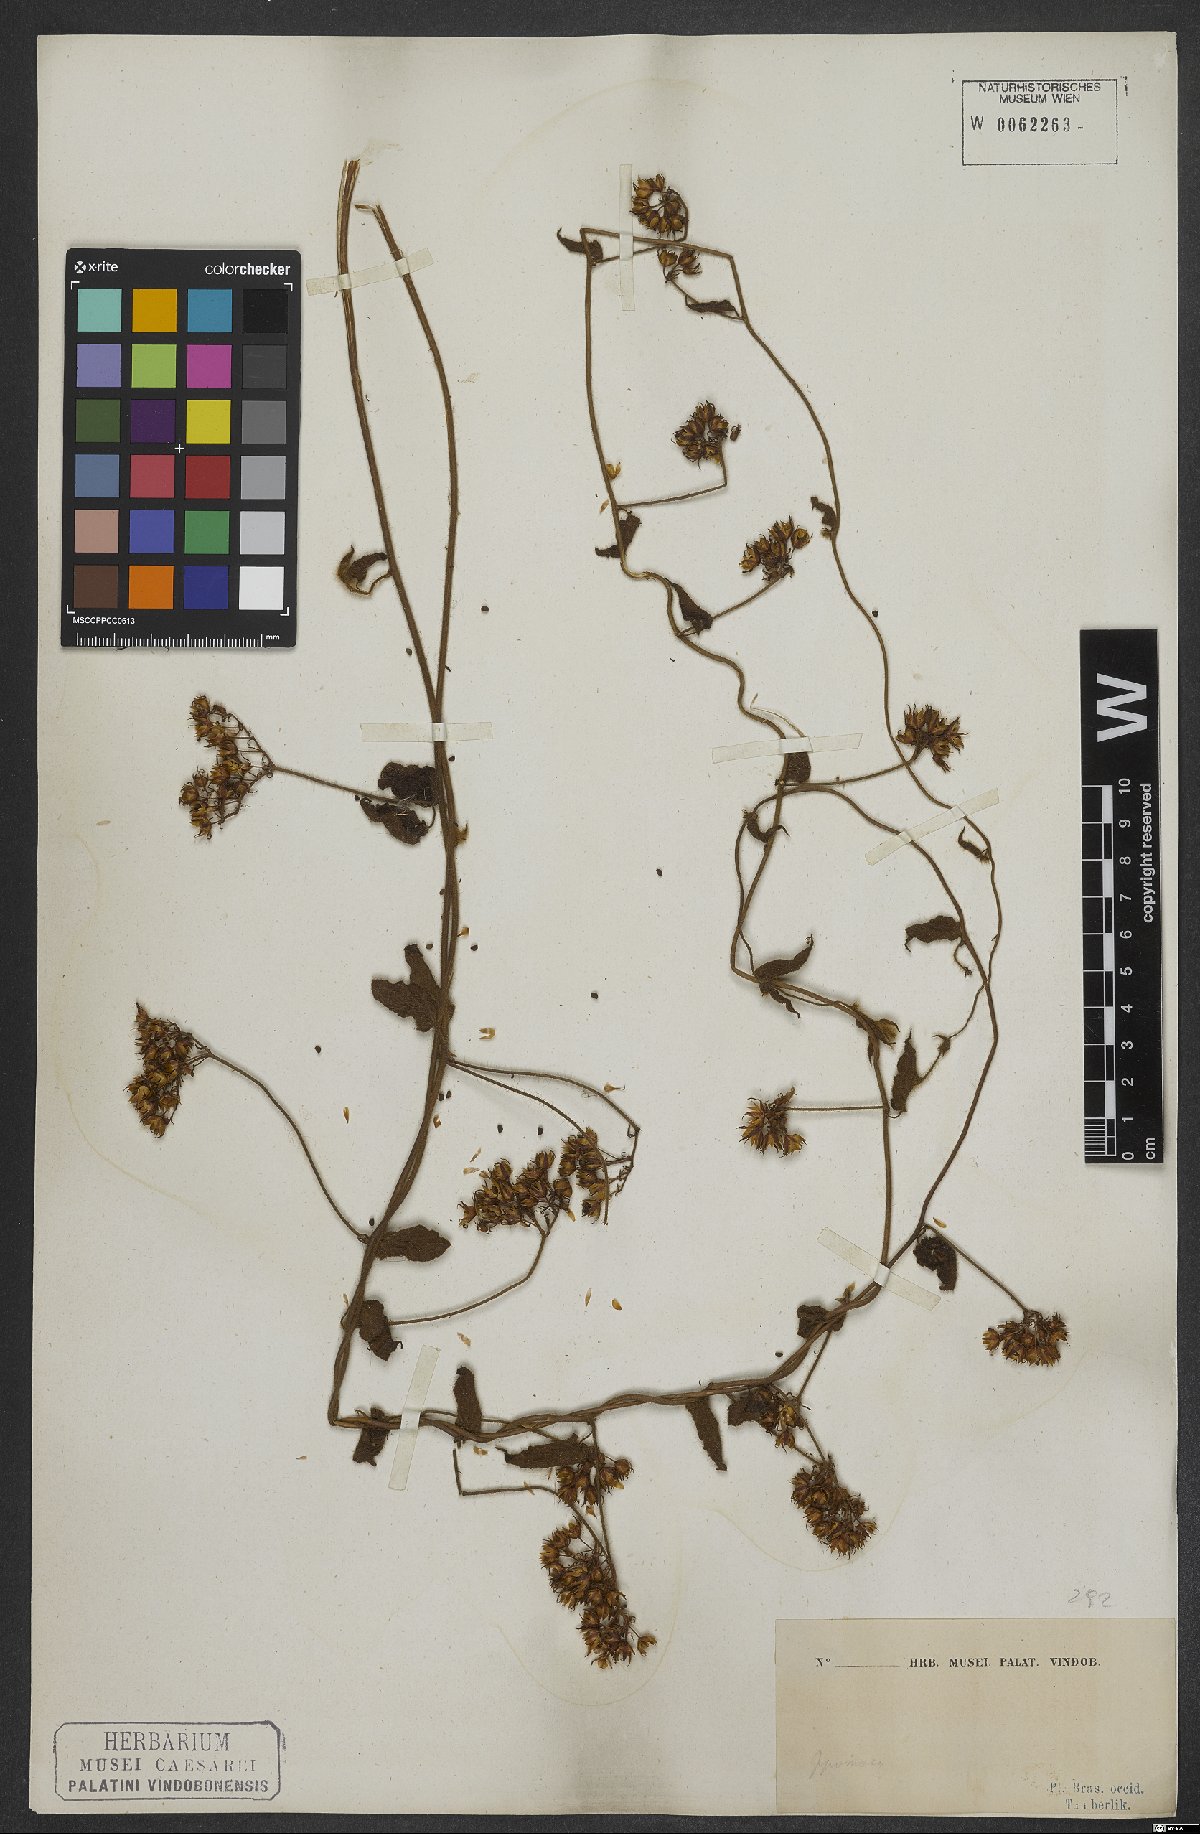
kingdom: Plantae
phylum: Tracheophyta
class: Magnoliopsida
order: Solanales
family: Convolvulaceae
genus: Jacquemontia
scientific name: Jacquemontia sphaerostigma
